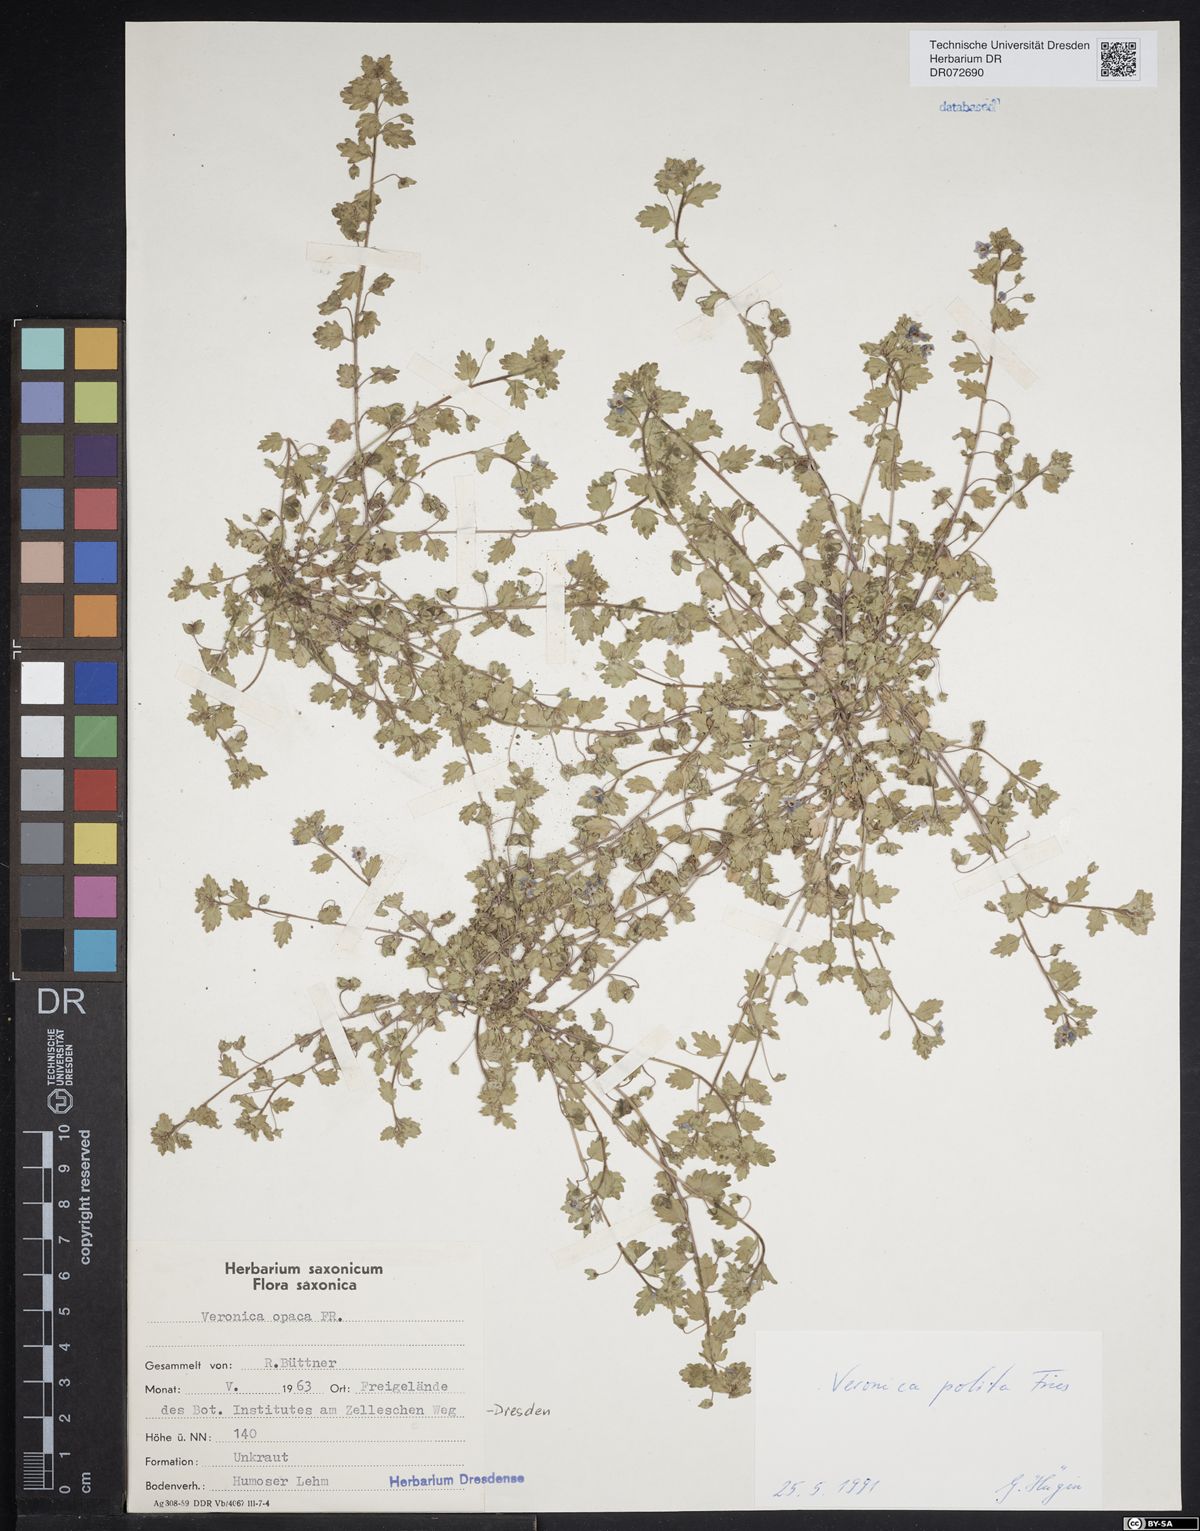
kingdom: Plantae
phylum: Tracheophyta
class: Magnoliopsida
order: Lamiales
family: Plantaginaceae
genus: Veronica
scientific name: Veronica polita
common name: Grey field-speedwell
